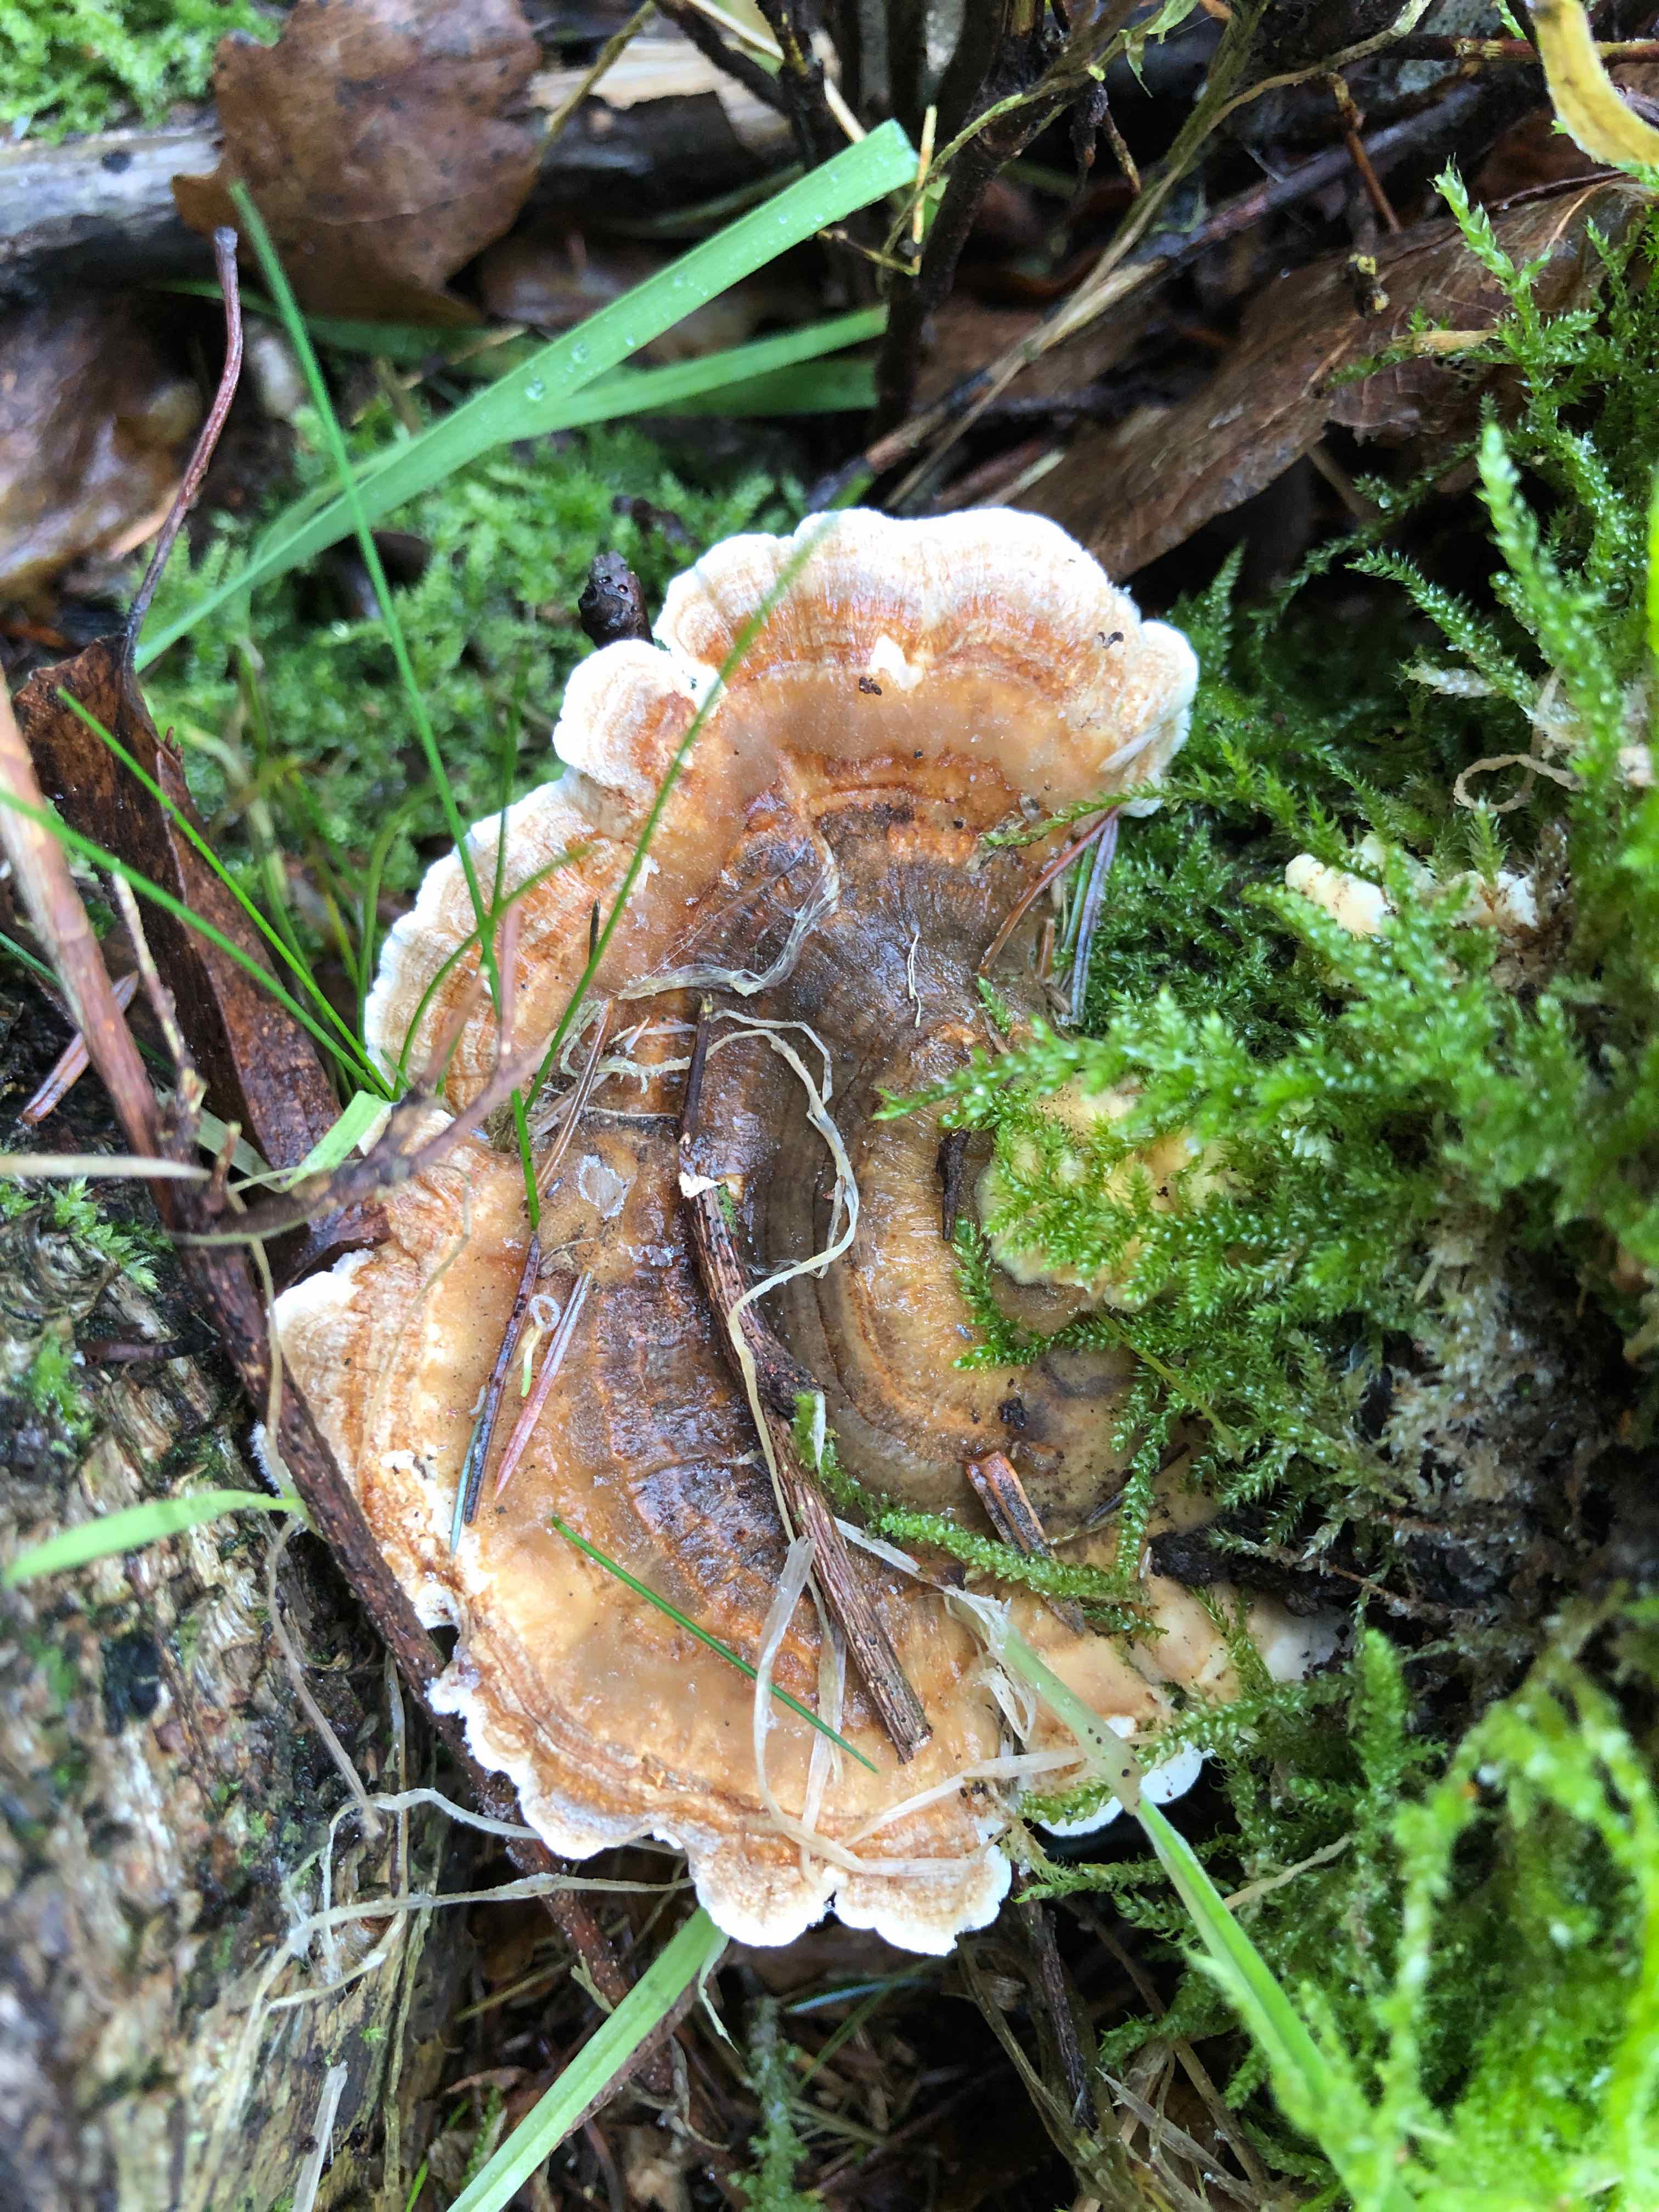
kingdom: Fungi
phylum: Basidiomycota
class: Agaricomycetes
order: Polyporales
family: Polyporaceae
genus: Trametes
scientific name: Trametes versicolor
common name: broget læderporesvamp
